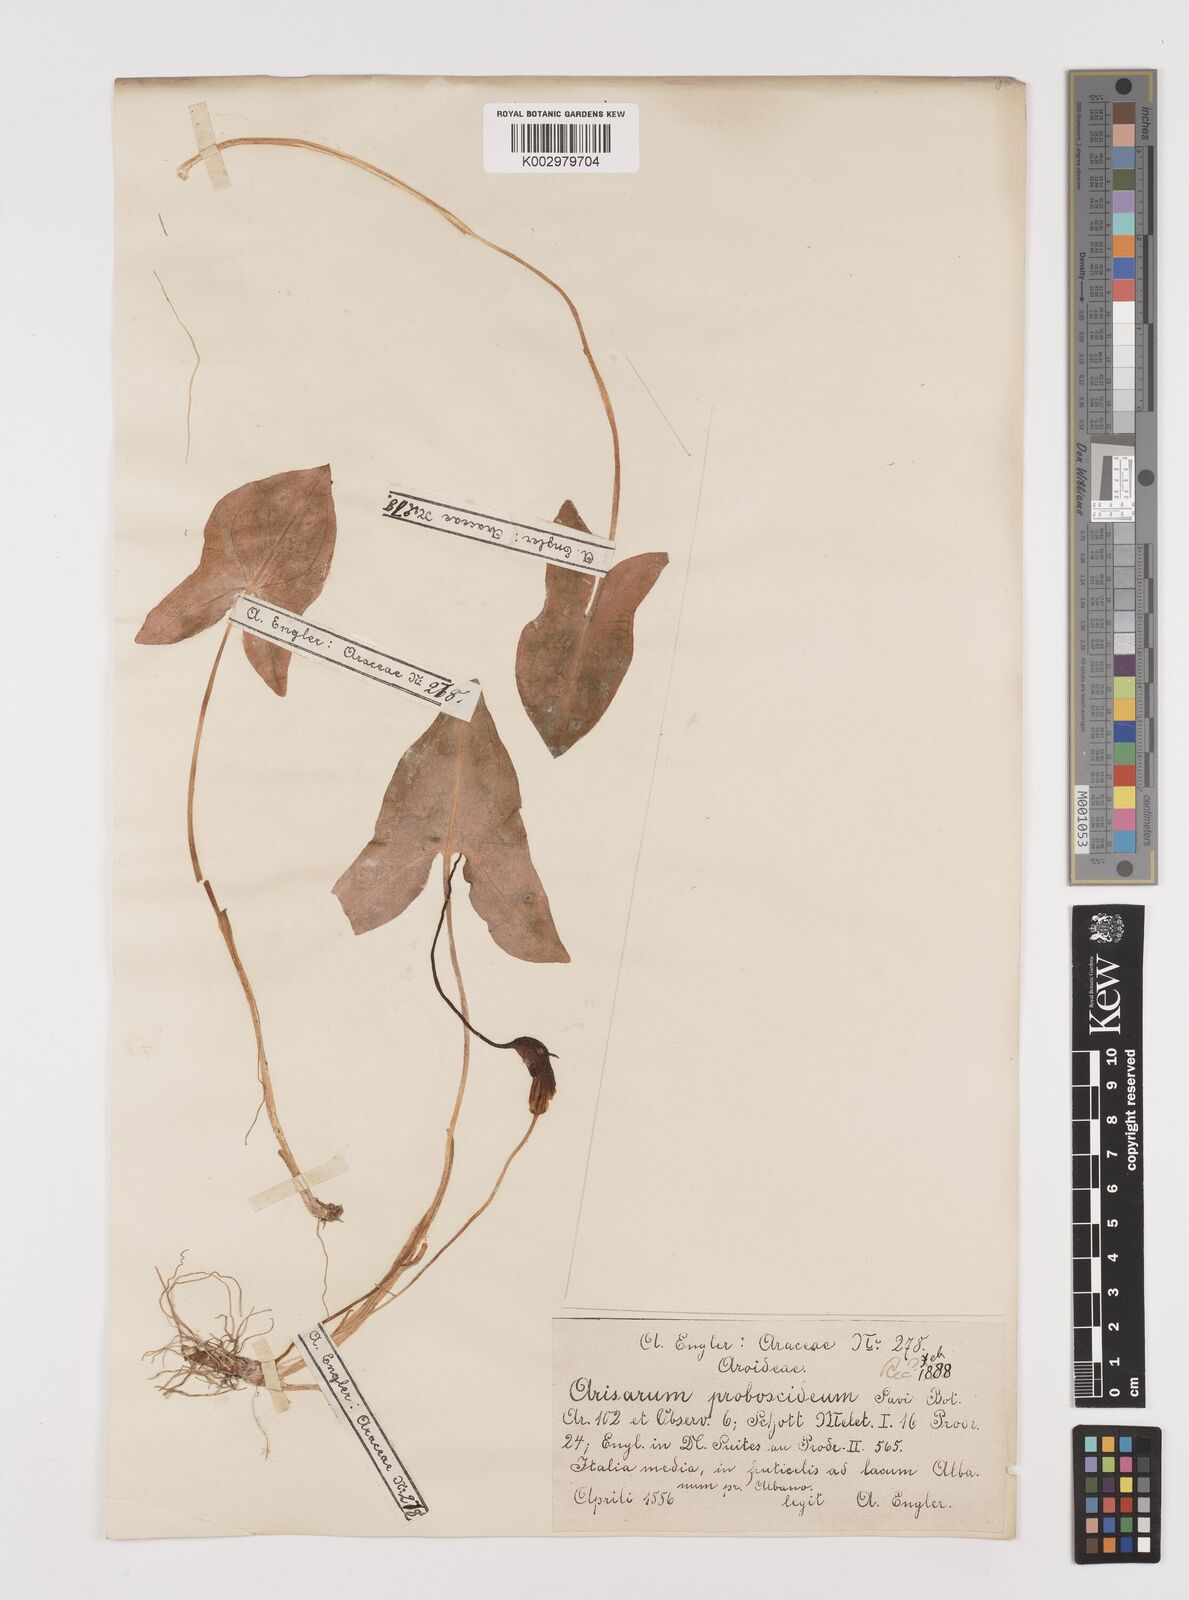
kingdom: Plantae
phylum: Tracheophyta
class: Liliopsida
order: Alismatales
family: Araceae
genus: Arisarum
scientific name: Arisarum proboscideum
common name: Mousetailplant
